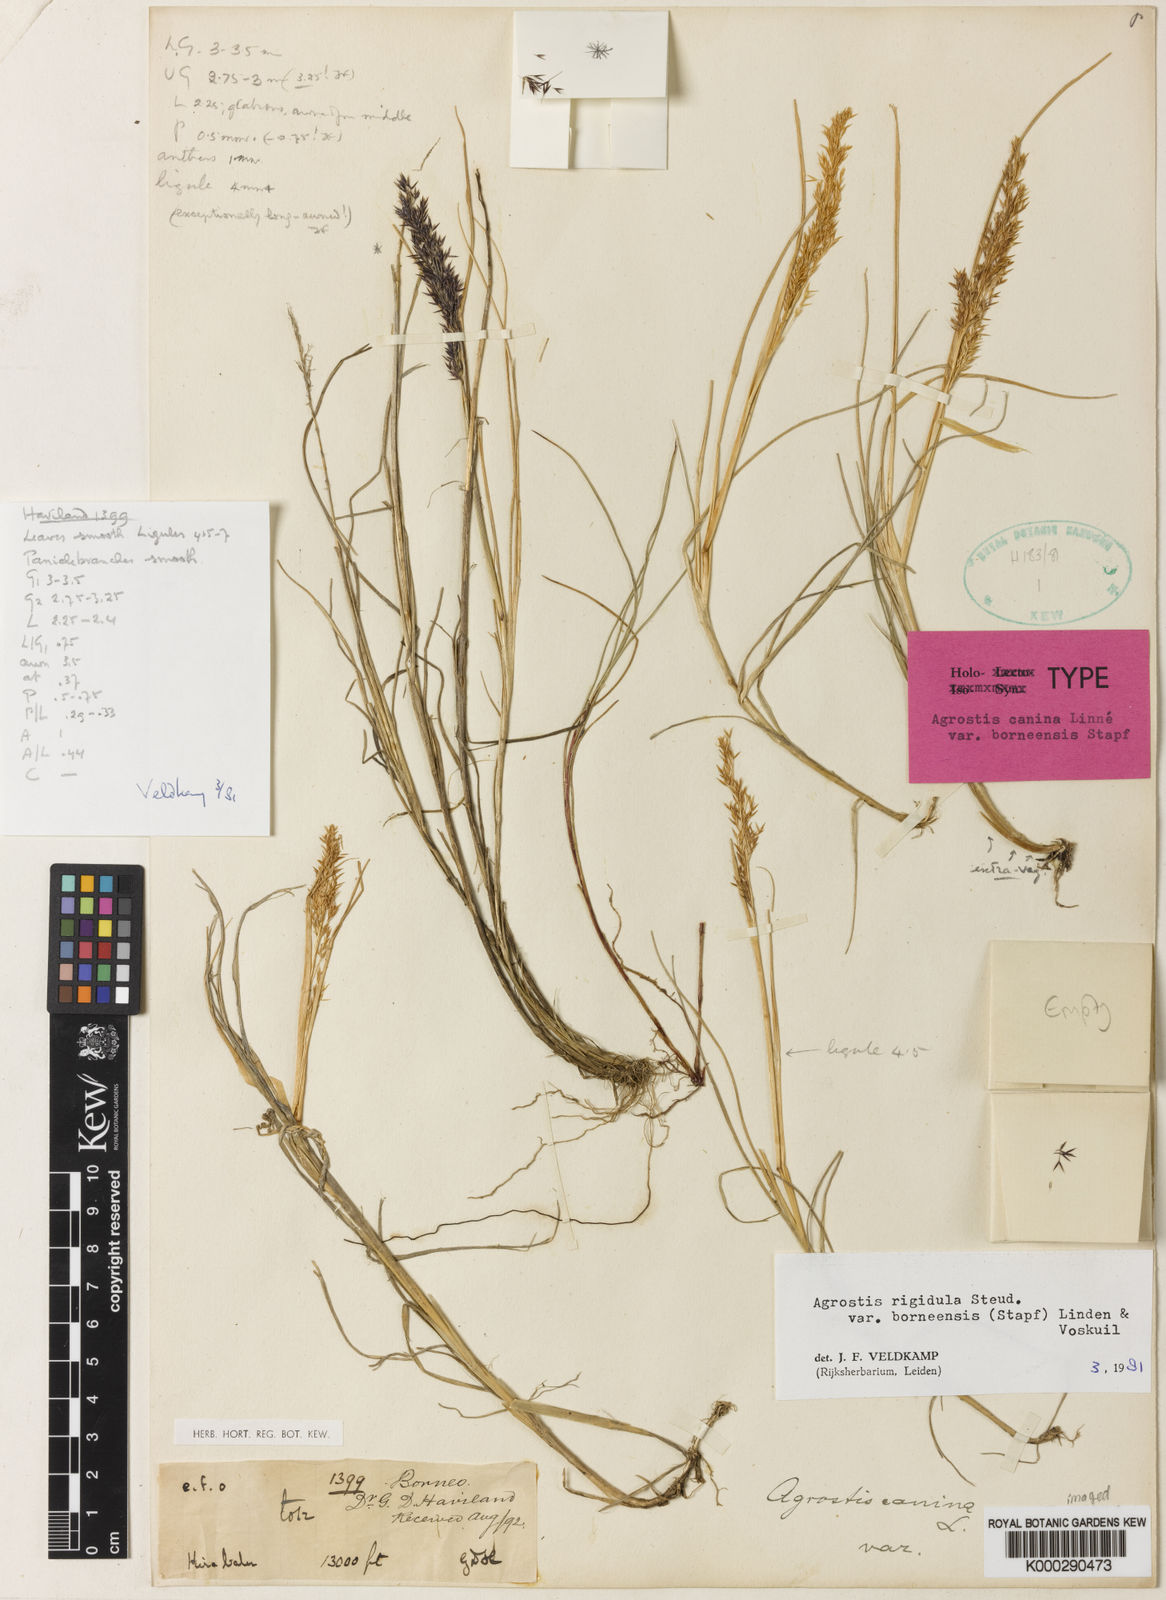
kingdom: Plantae
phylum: Tracheophyta
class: Liliopsida
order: Poales
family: Poaceae
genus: Agrostis
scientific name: Agrostis infirma
